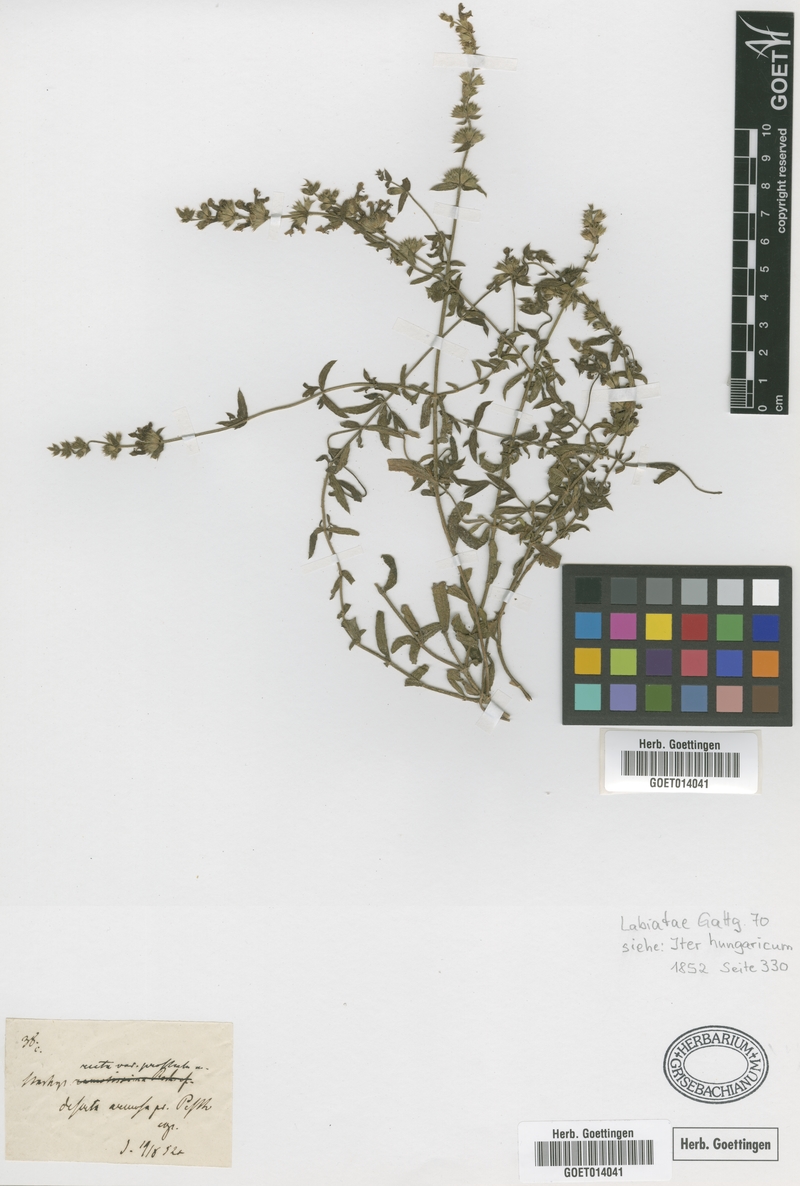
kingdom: Plantae
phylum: Tracheophyta
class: Magnoliopsida
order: Lamiales
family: Lamiaceae
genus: Stachys
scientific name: Stachys recta
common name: Perennial yellow-woundwort
